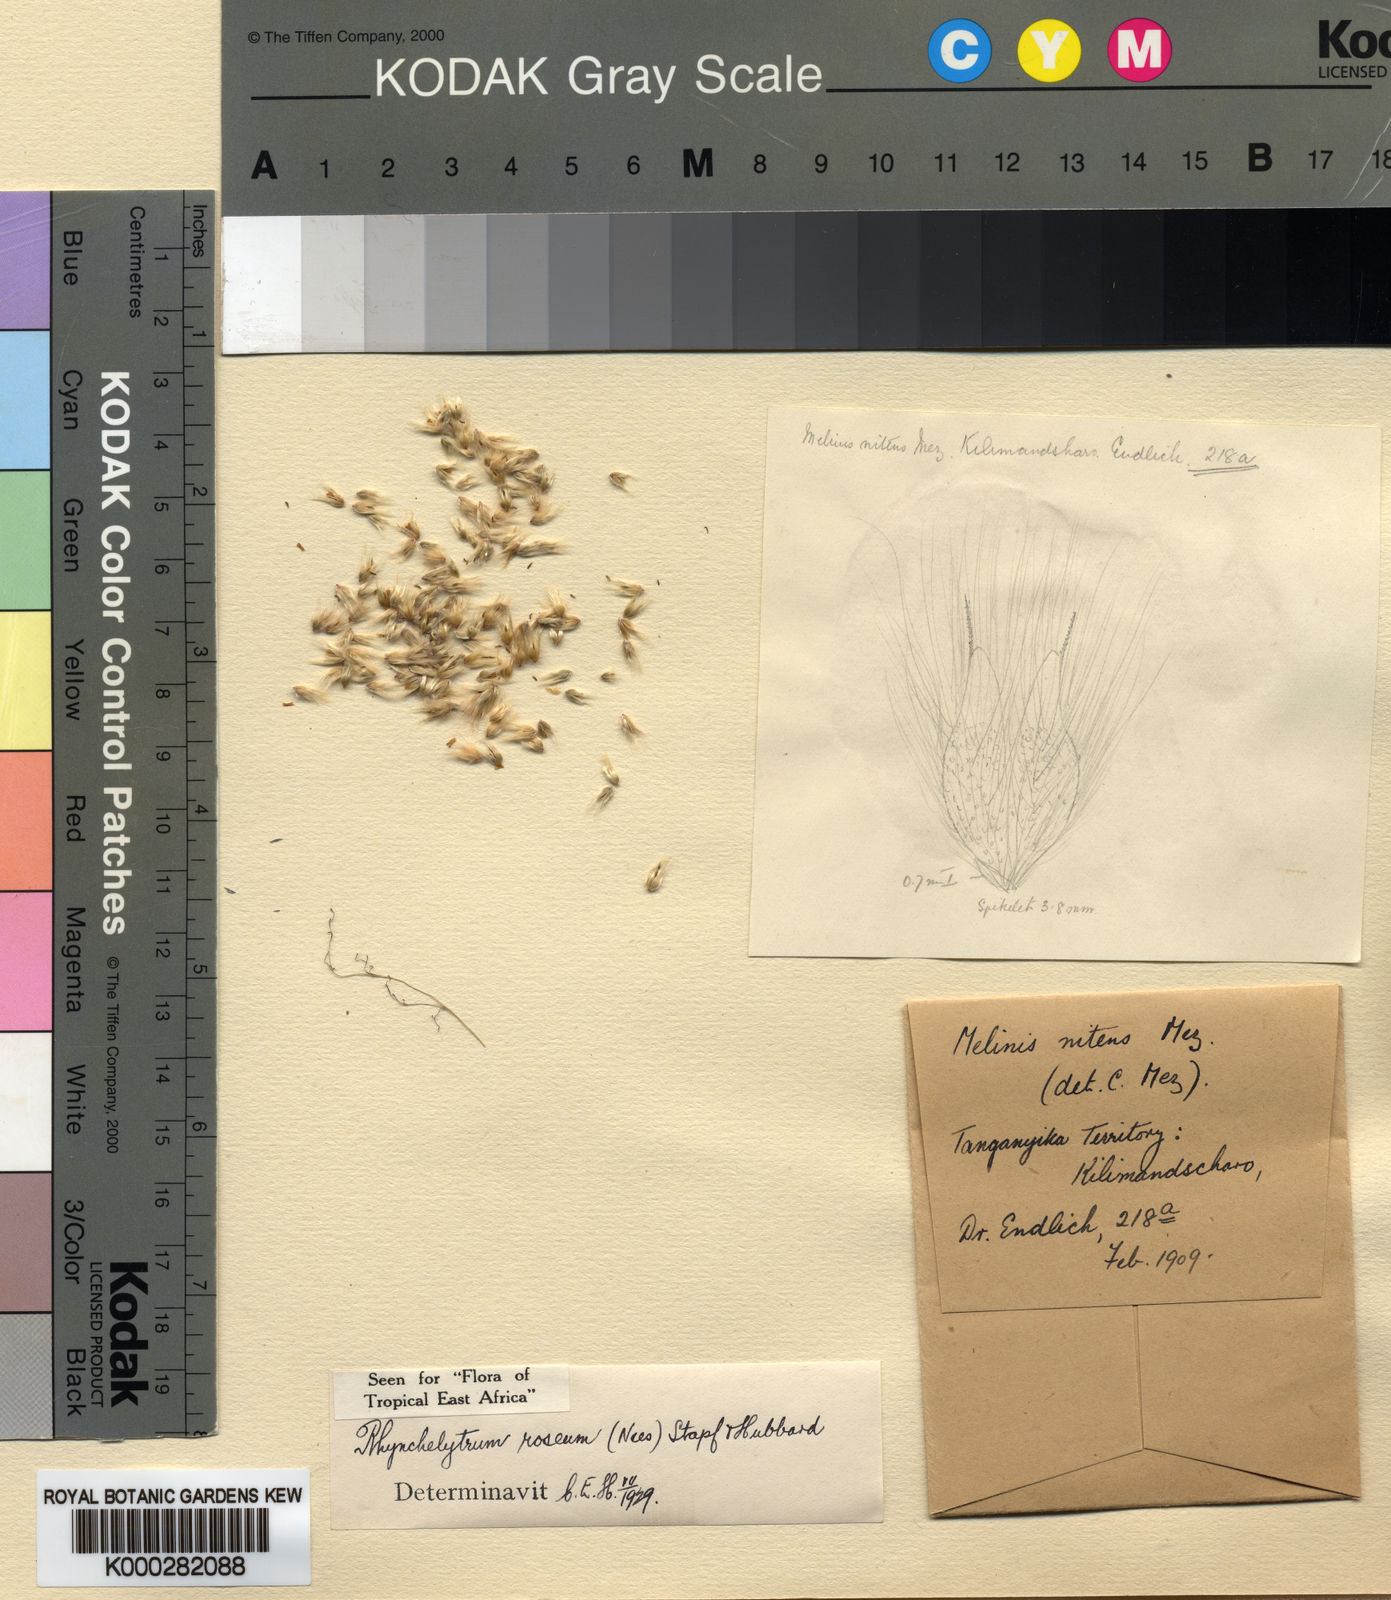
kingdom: Plantae
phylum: Tracheophyta
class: Liliopsida
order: Poales
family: Poaceae
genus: Melinis
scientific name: Melinis repens
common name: Rose natal grass
